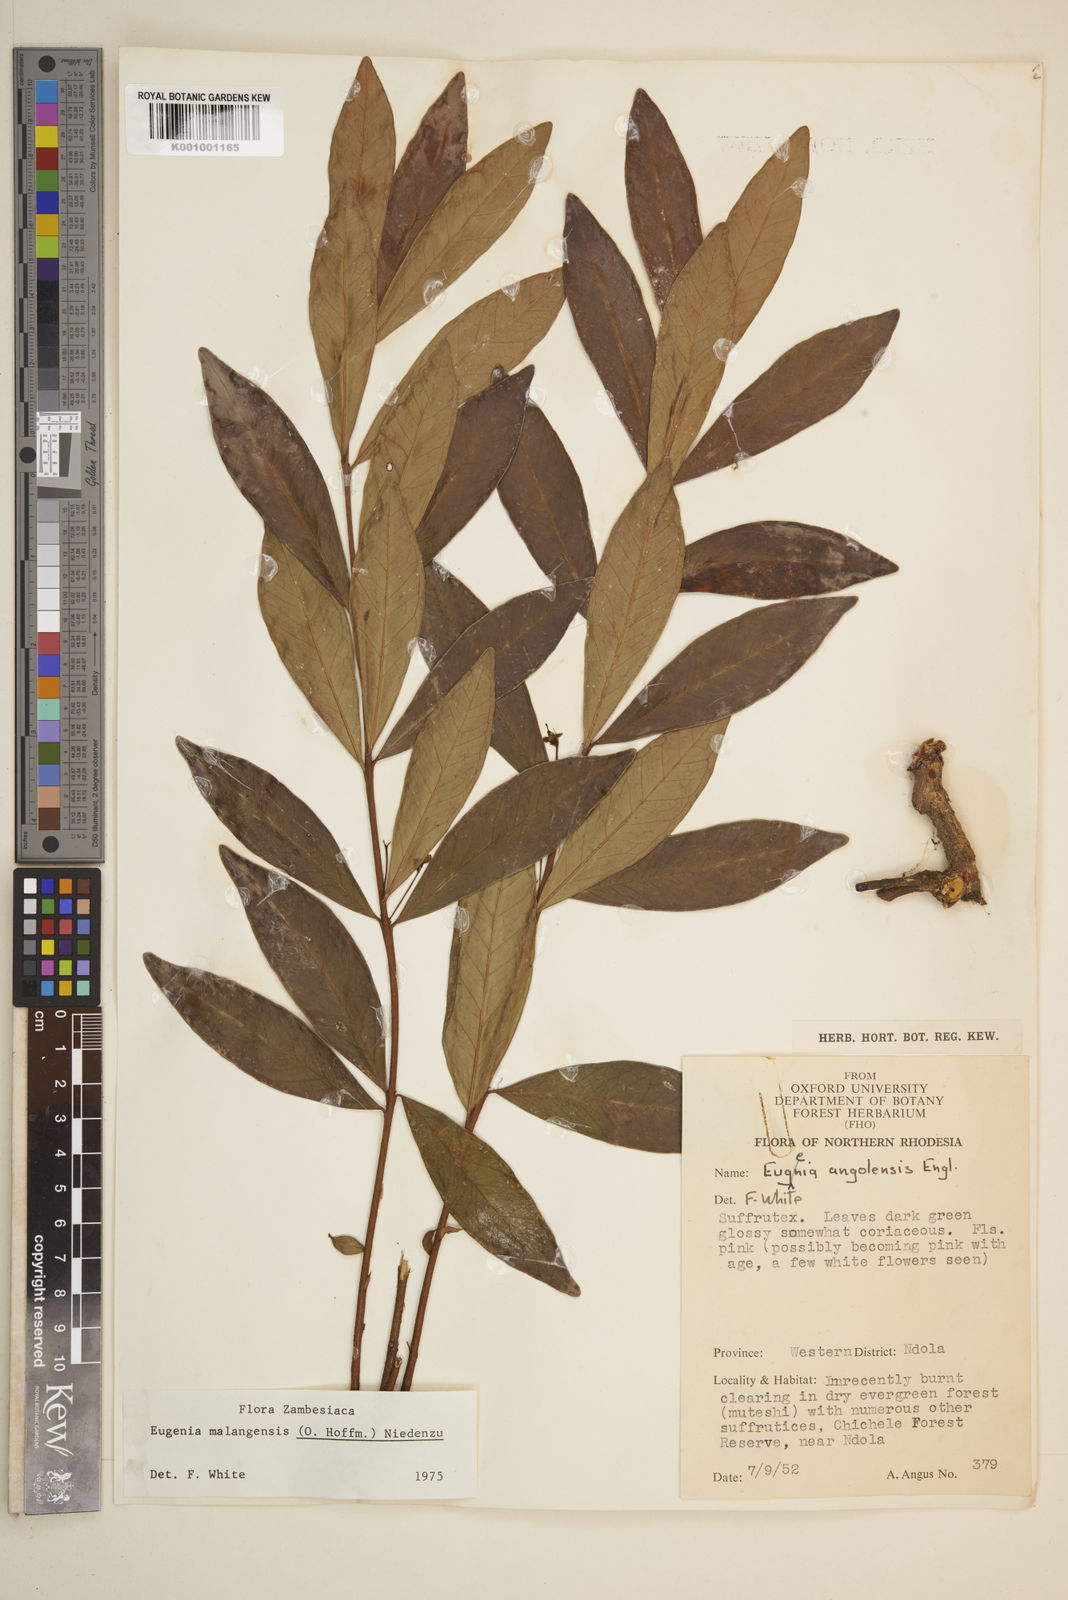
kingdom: Plantae
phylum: Tracheophyta
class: Magnoliopsida
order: Myrtales
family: Myrtaceae
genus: Eugenia
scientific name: Eugenia malangensis
